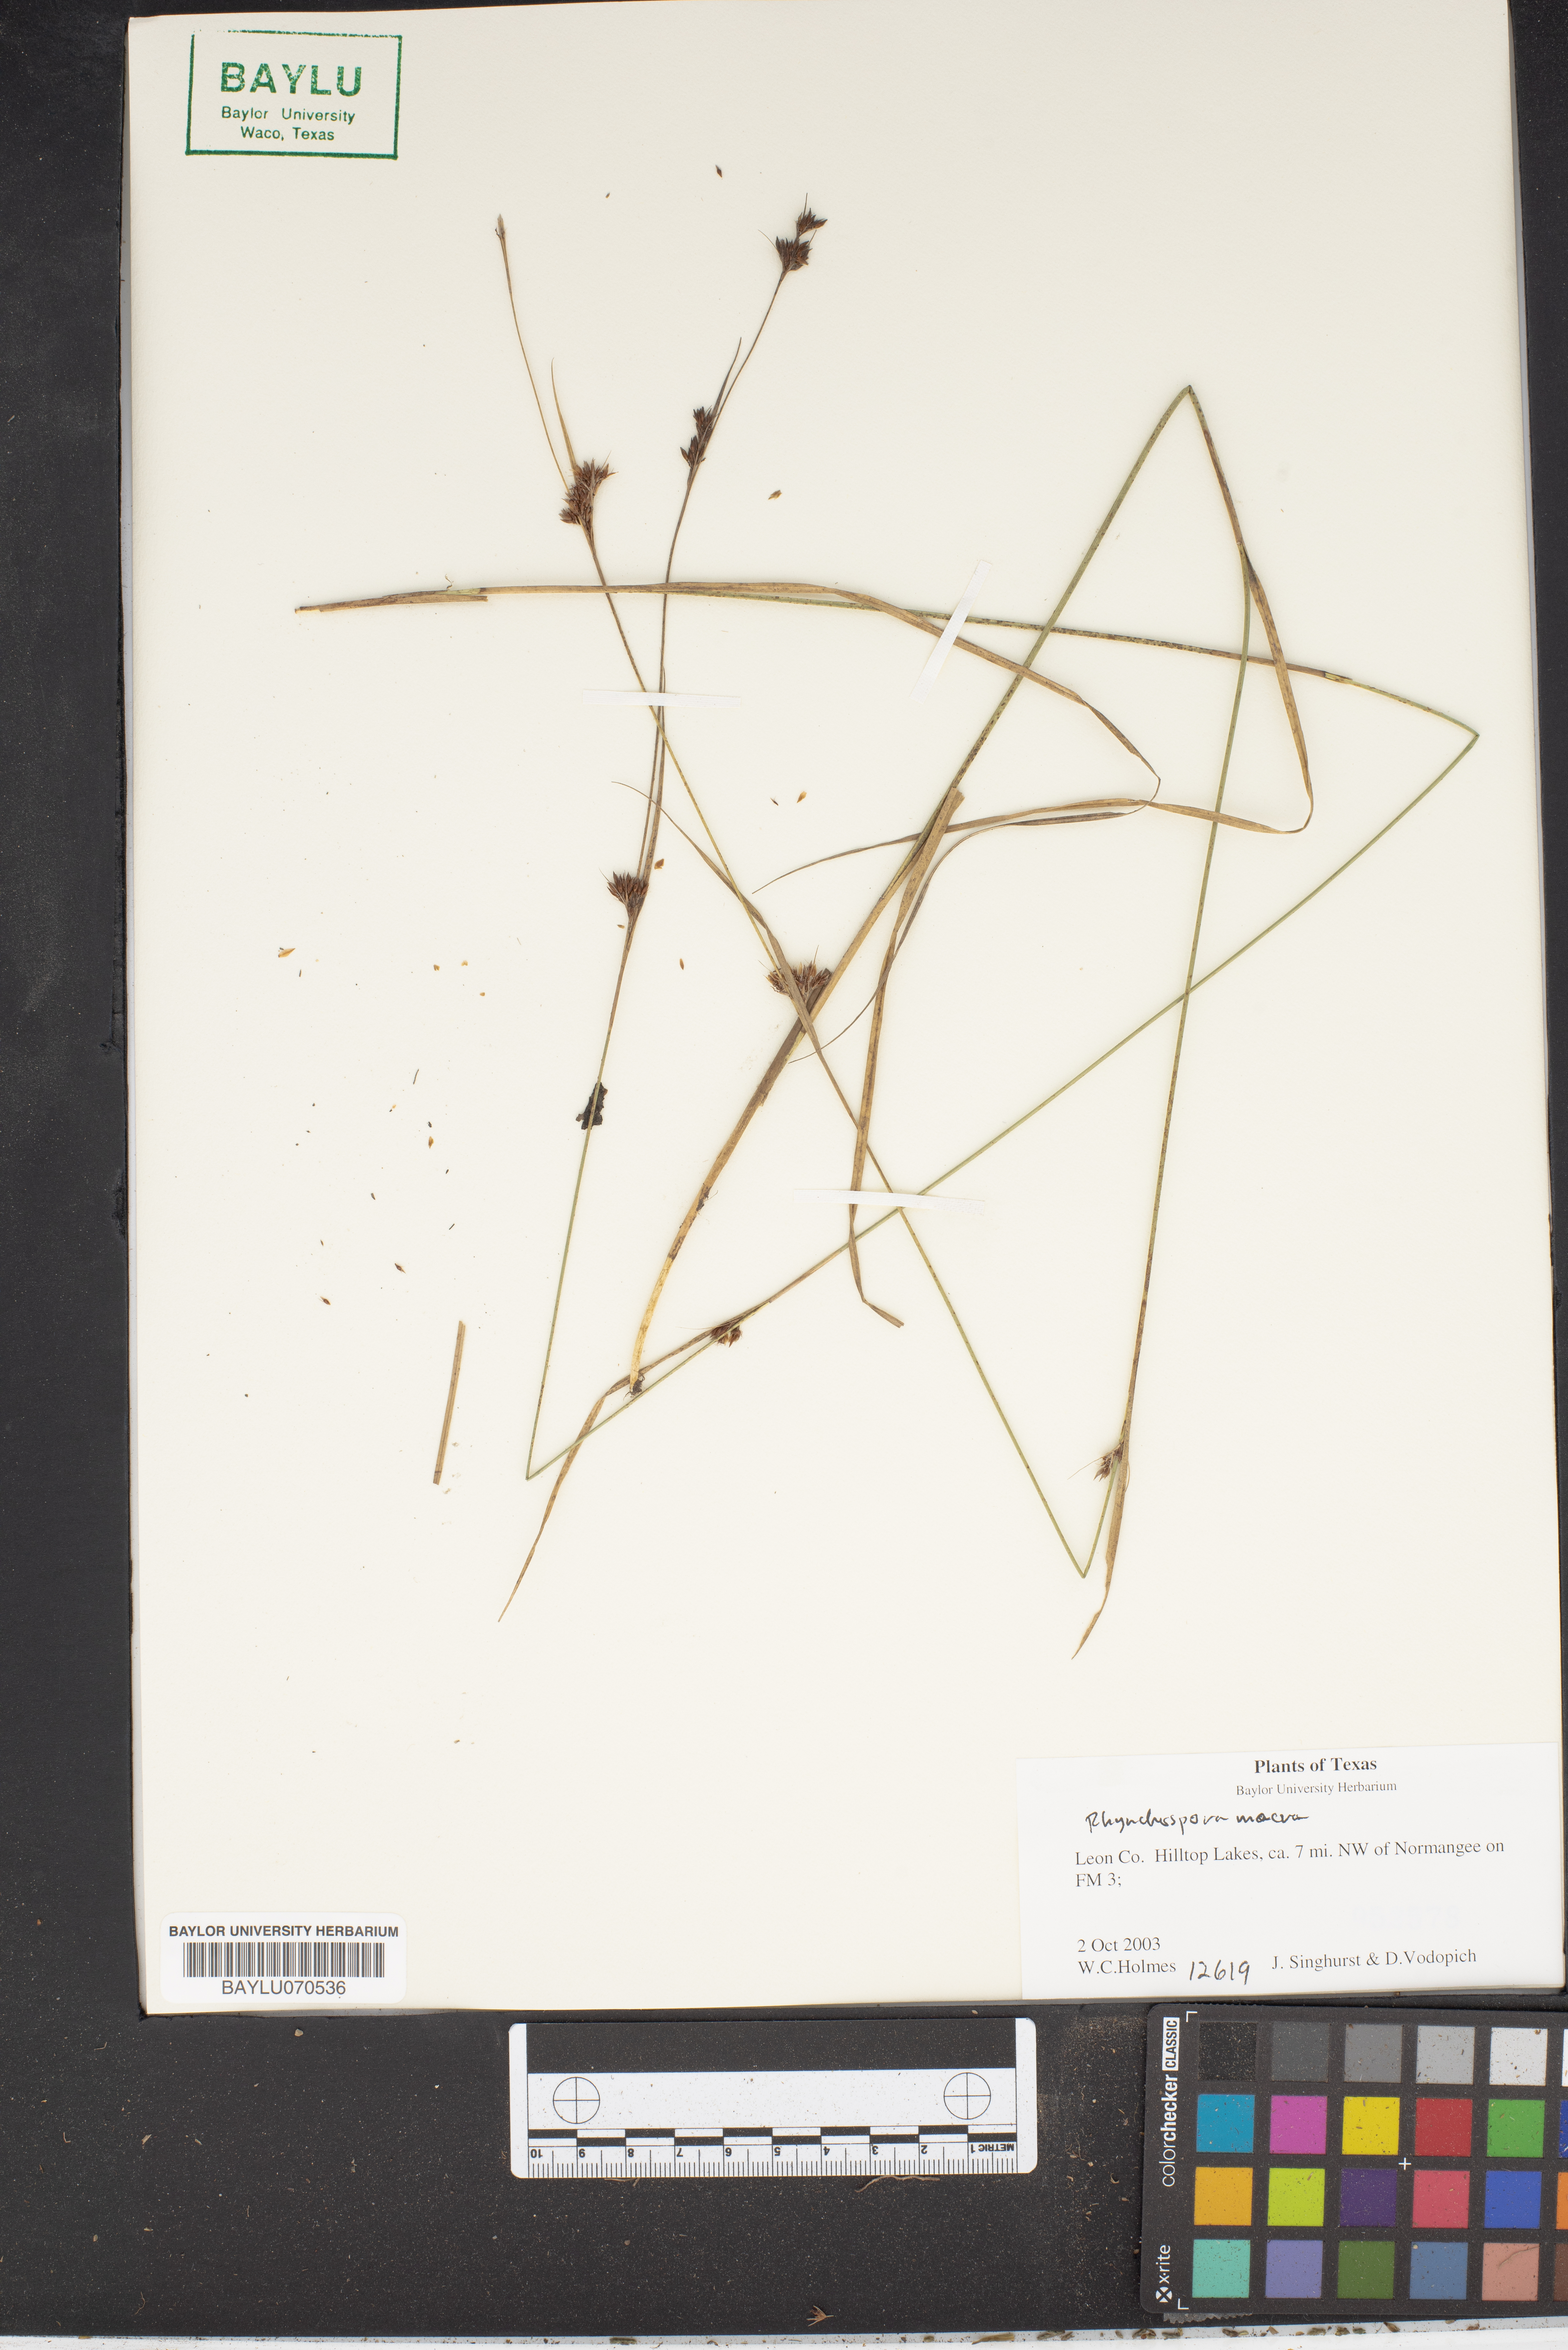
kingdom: Plantae
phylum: Tracheophyta
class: Liliopsida
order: Poales
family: Cyperaceae
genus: Rhynchospora
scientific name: Rhynchospora macra
